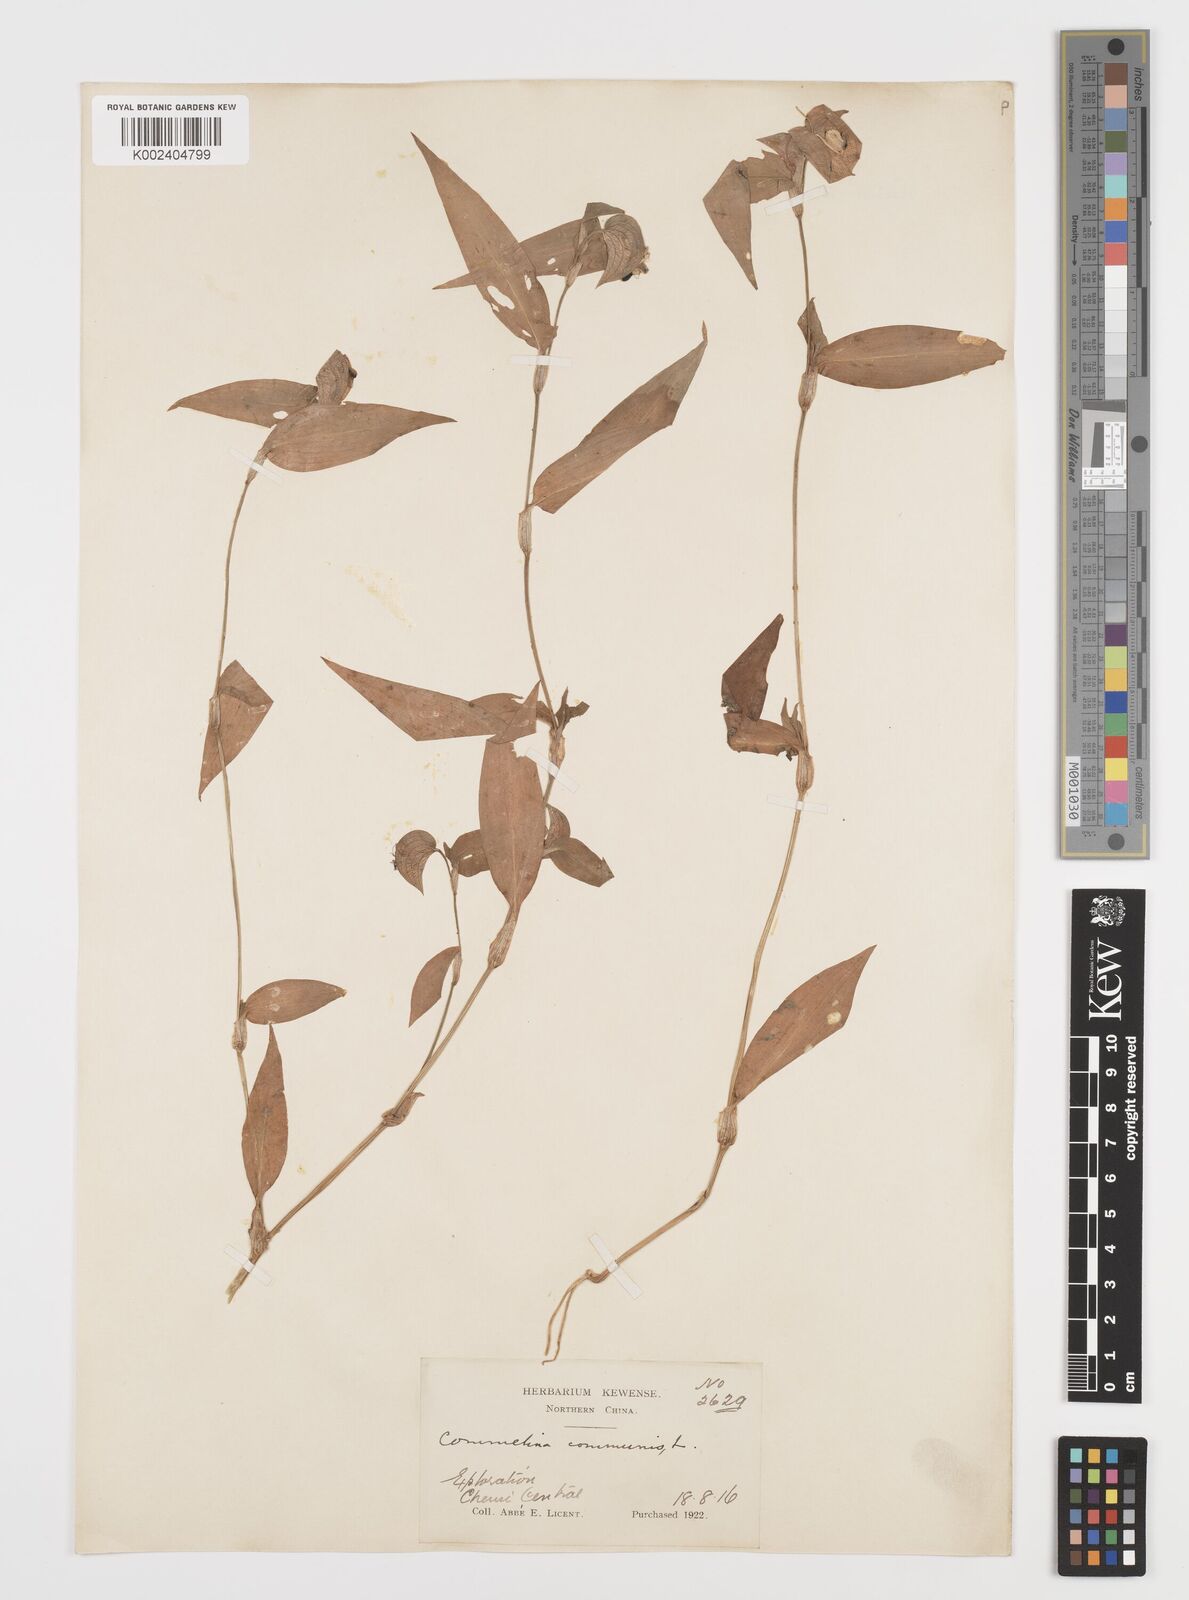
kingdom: Plantae
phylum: Tracheophyta
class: Liliopsida
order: Commelinales
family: Commelinaceae
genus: Commelina
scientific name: Commelina communis
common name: Asiatic dayflower
